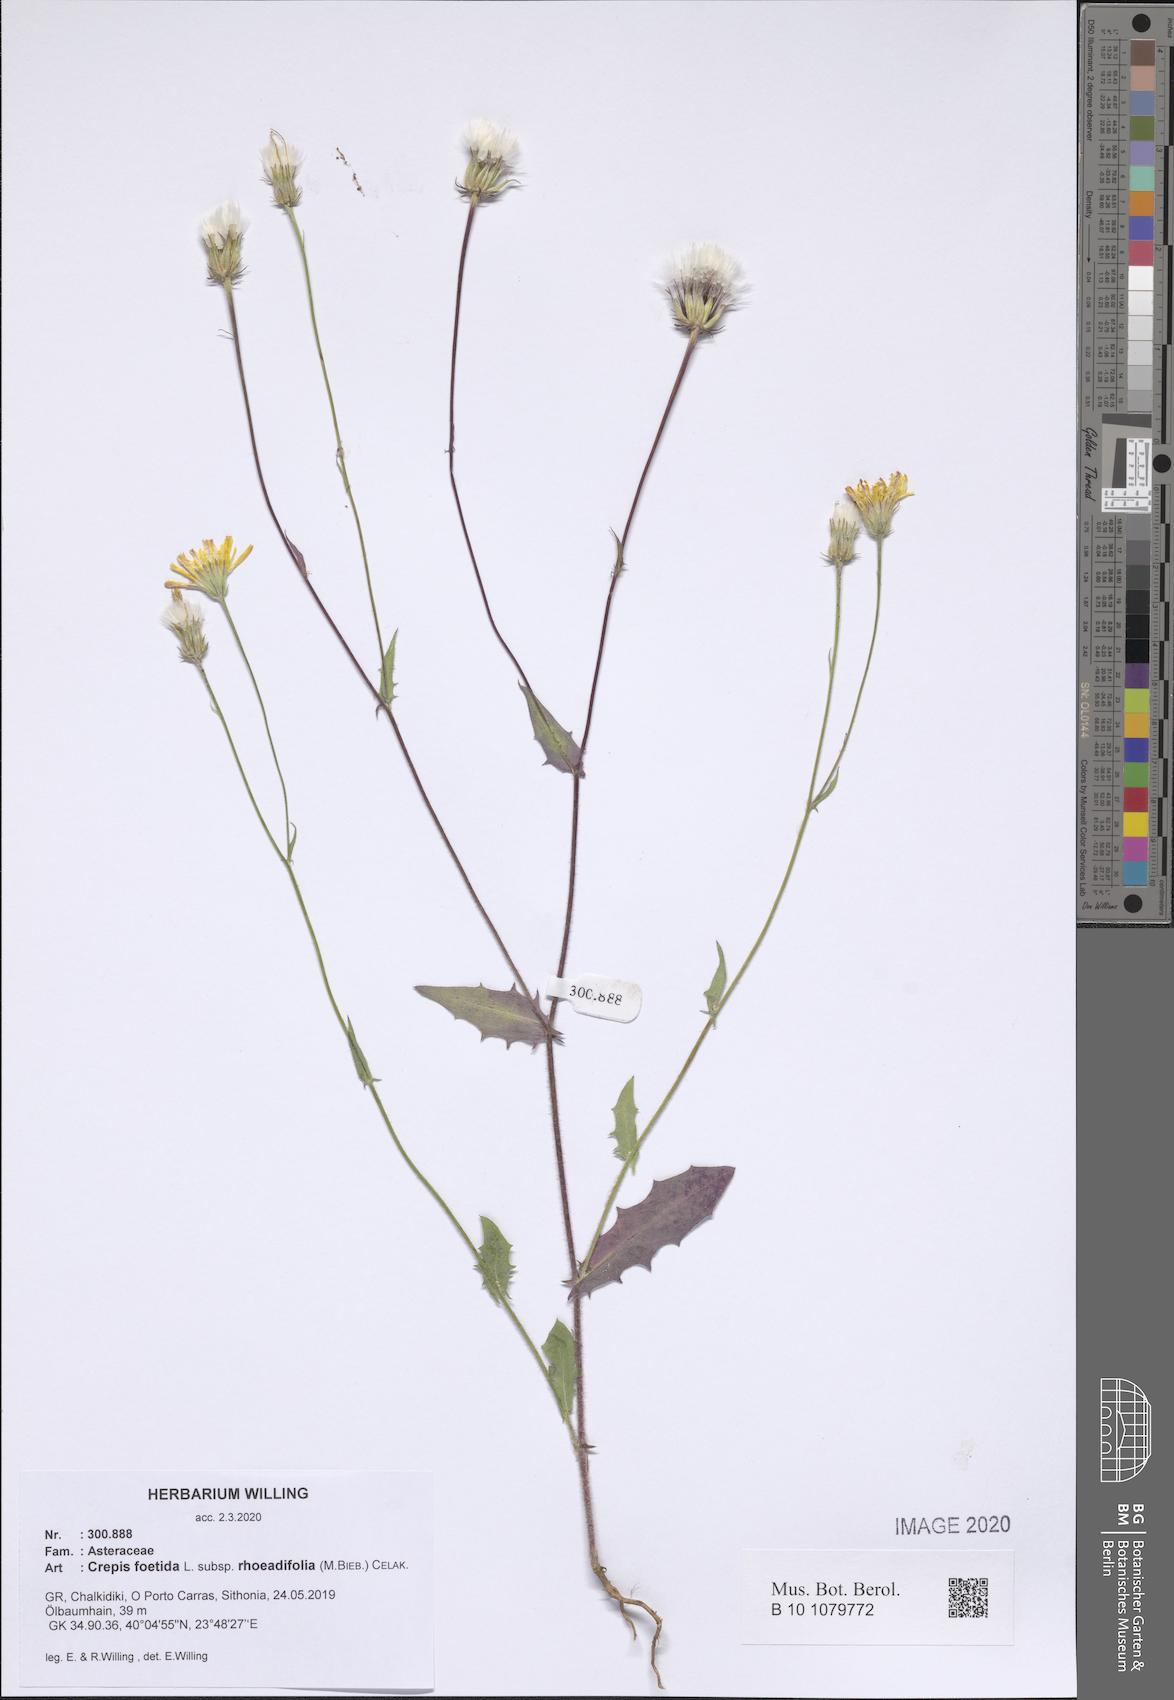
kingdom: Plantae
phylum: Tracheophyta
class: Magnoliopsida
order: Asterales
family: Asteraceae
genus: Crepis
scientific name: Crepis foetida
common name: Stinking hawk's-beard
